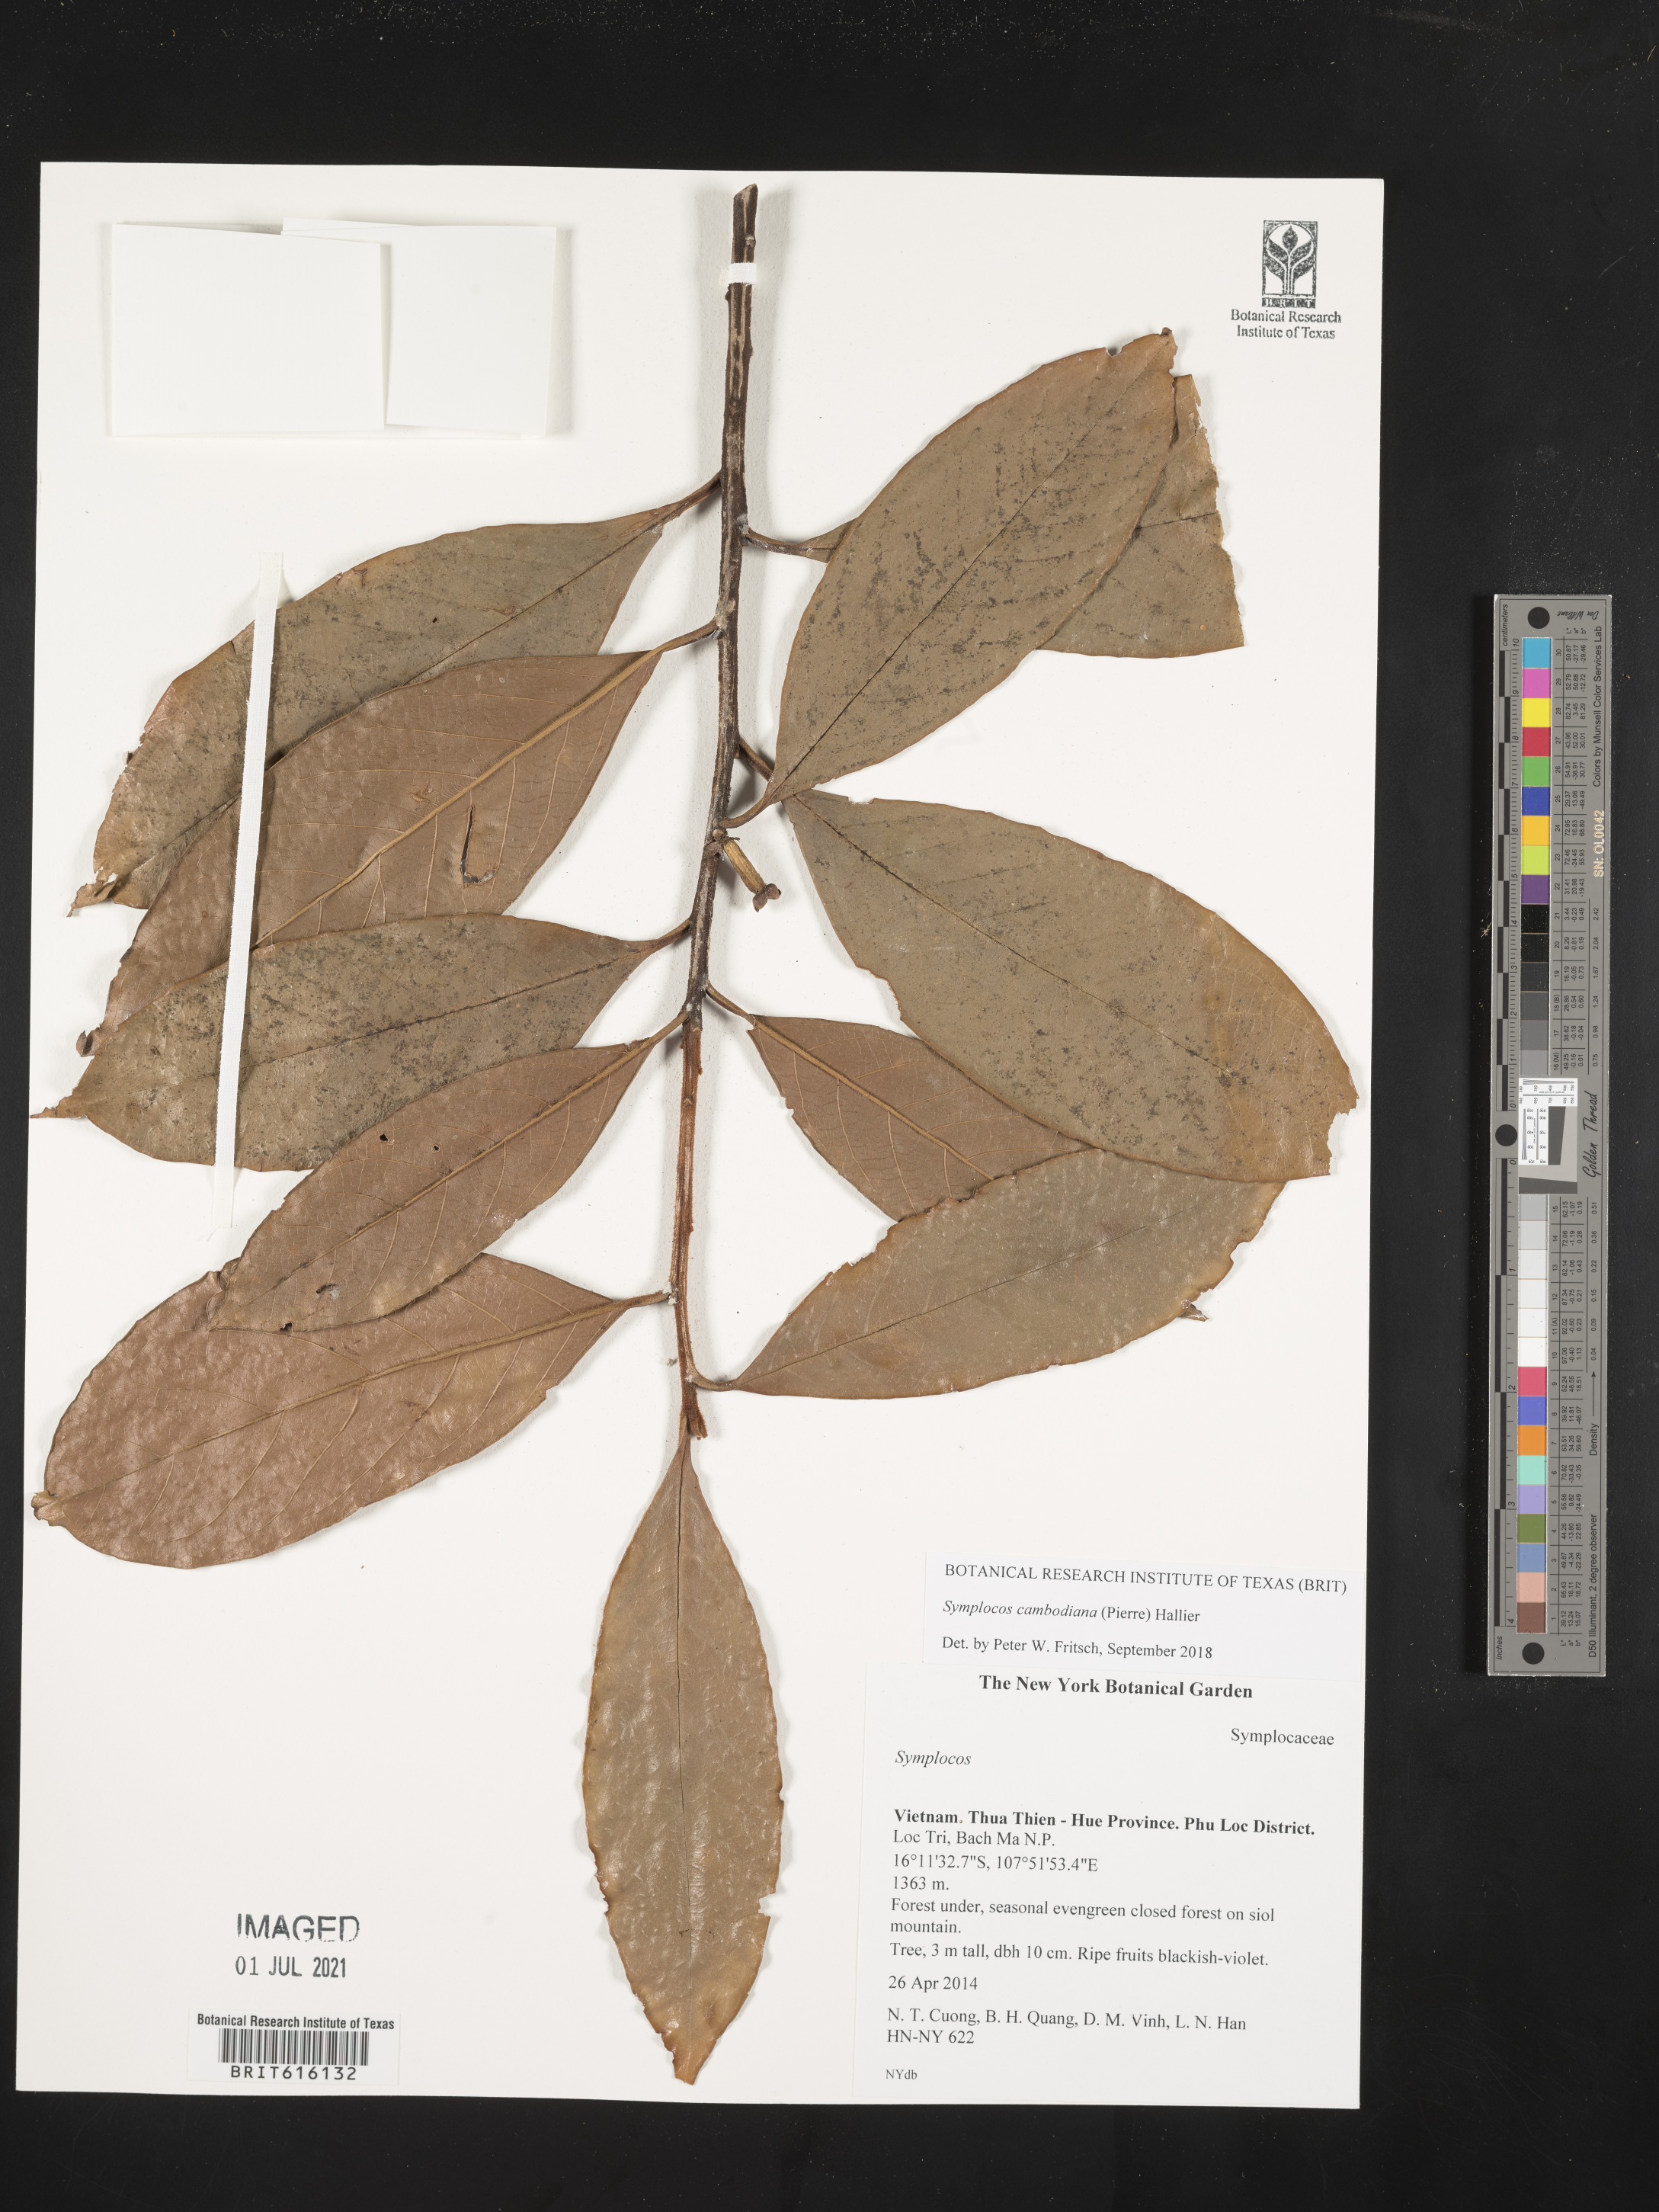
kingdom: Plantae
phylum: Tracheophyta
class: Magnoliopsida
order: Ericales
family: Symplocaceae
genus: Symplocos
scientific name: Symplocos
